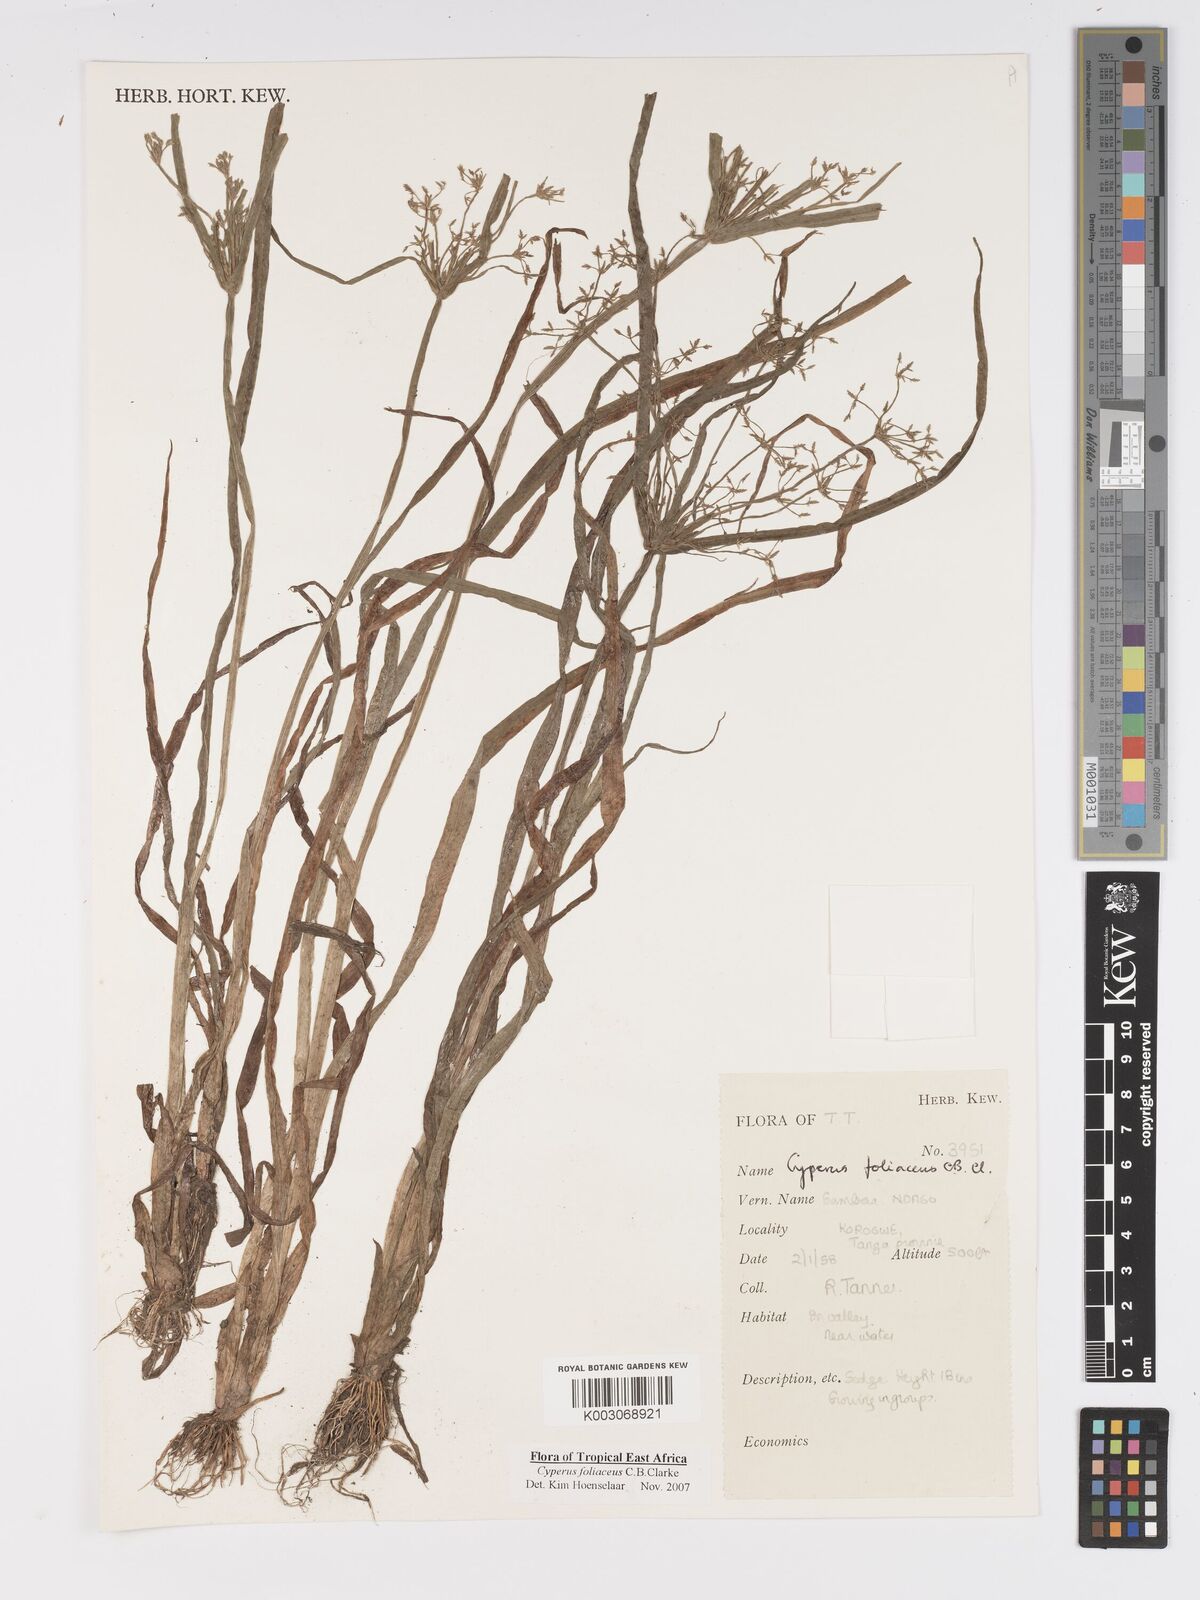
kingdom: Plantae
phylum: Tracheophyta
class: Liliopsida
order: Poales
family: Cyperaceae
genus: Cyperus
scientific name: Cyperus foliaceus
